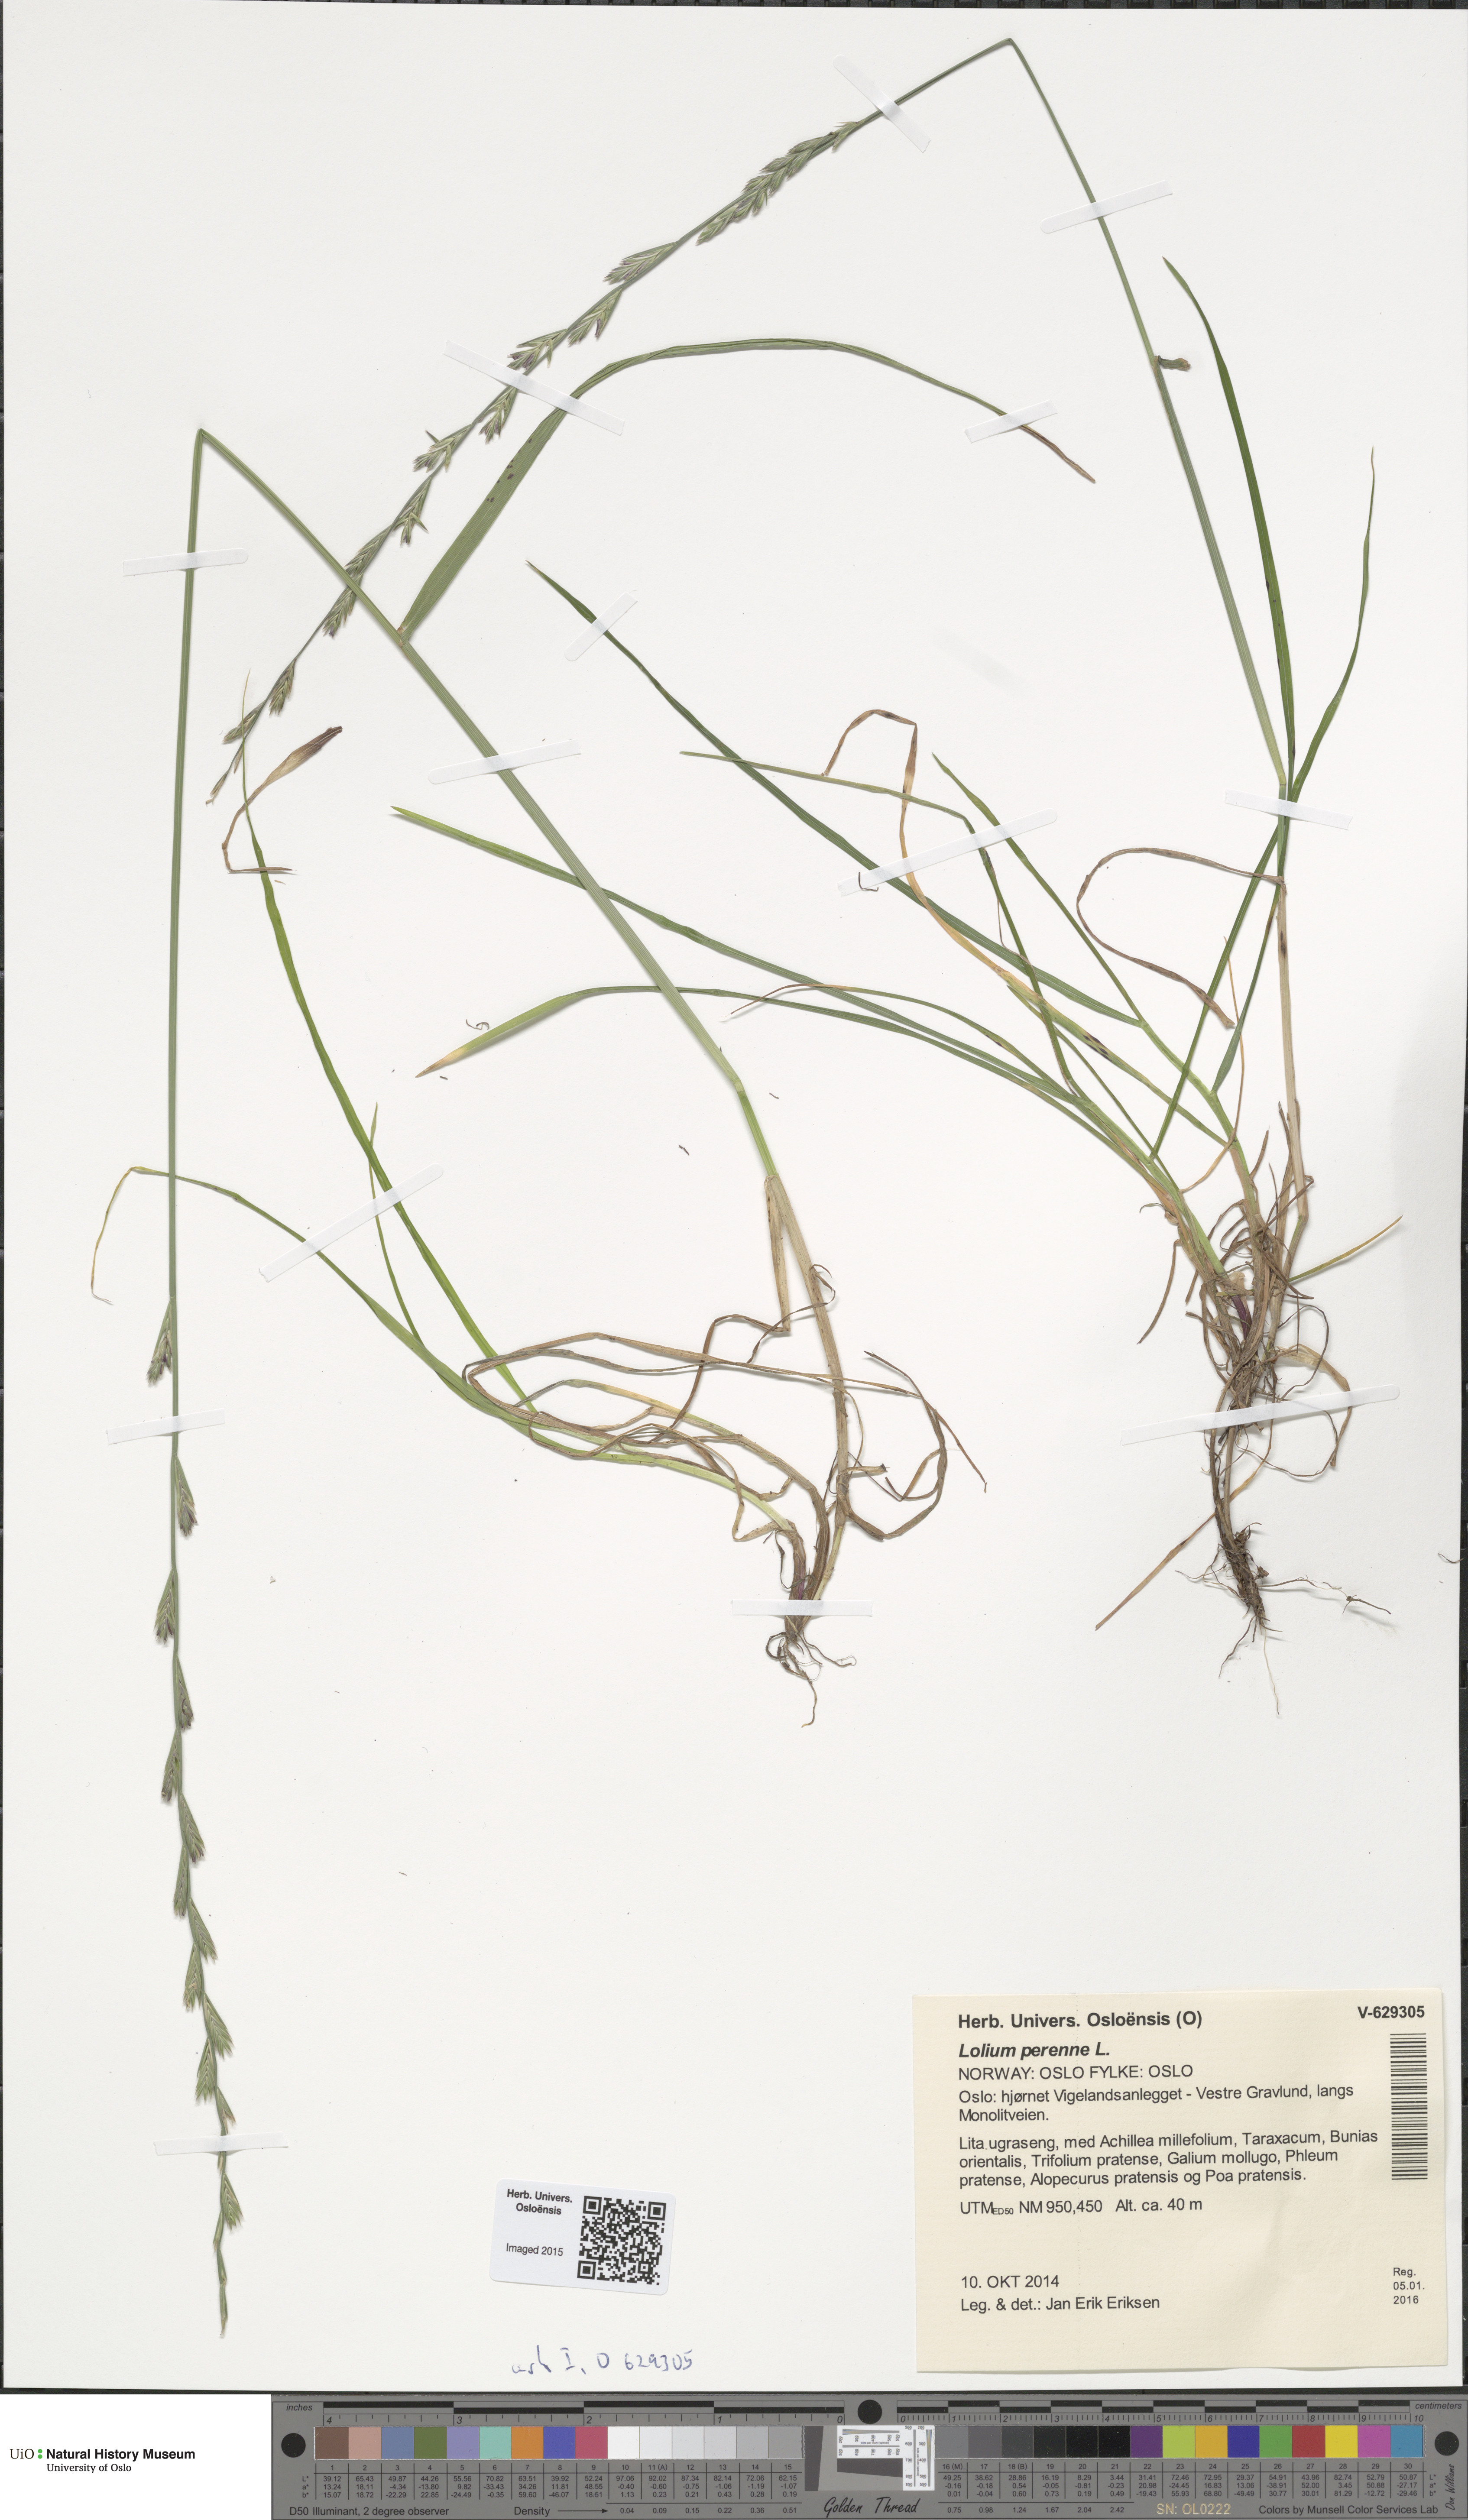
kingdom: Plantae
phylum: Tracheophyta
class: Liliopsida
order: Poales
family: Poaceae
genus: Lolium
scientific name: Lolium perenne
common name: Perennial ryegrass
